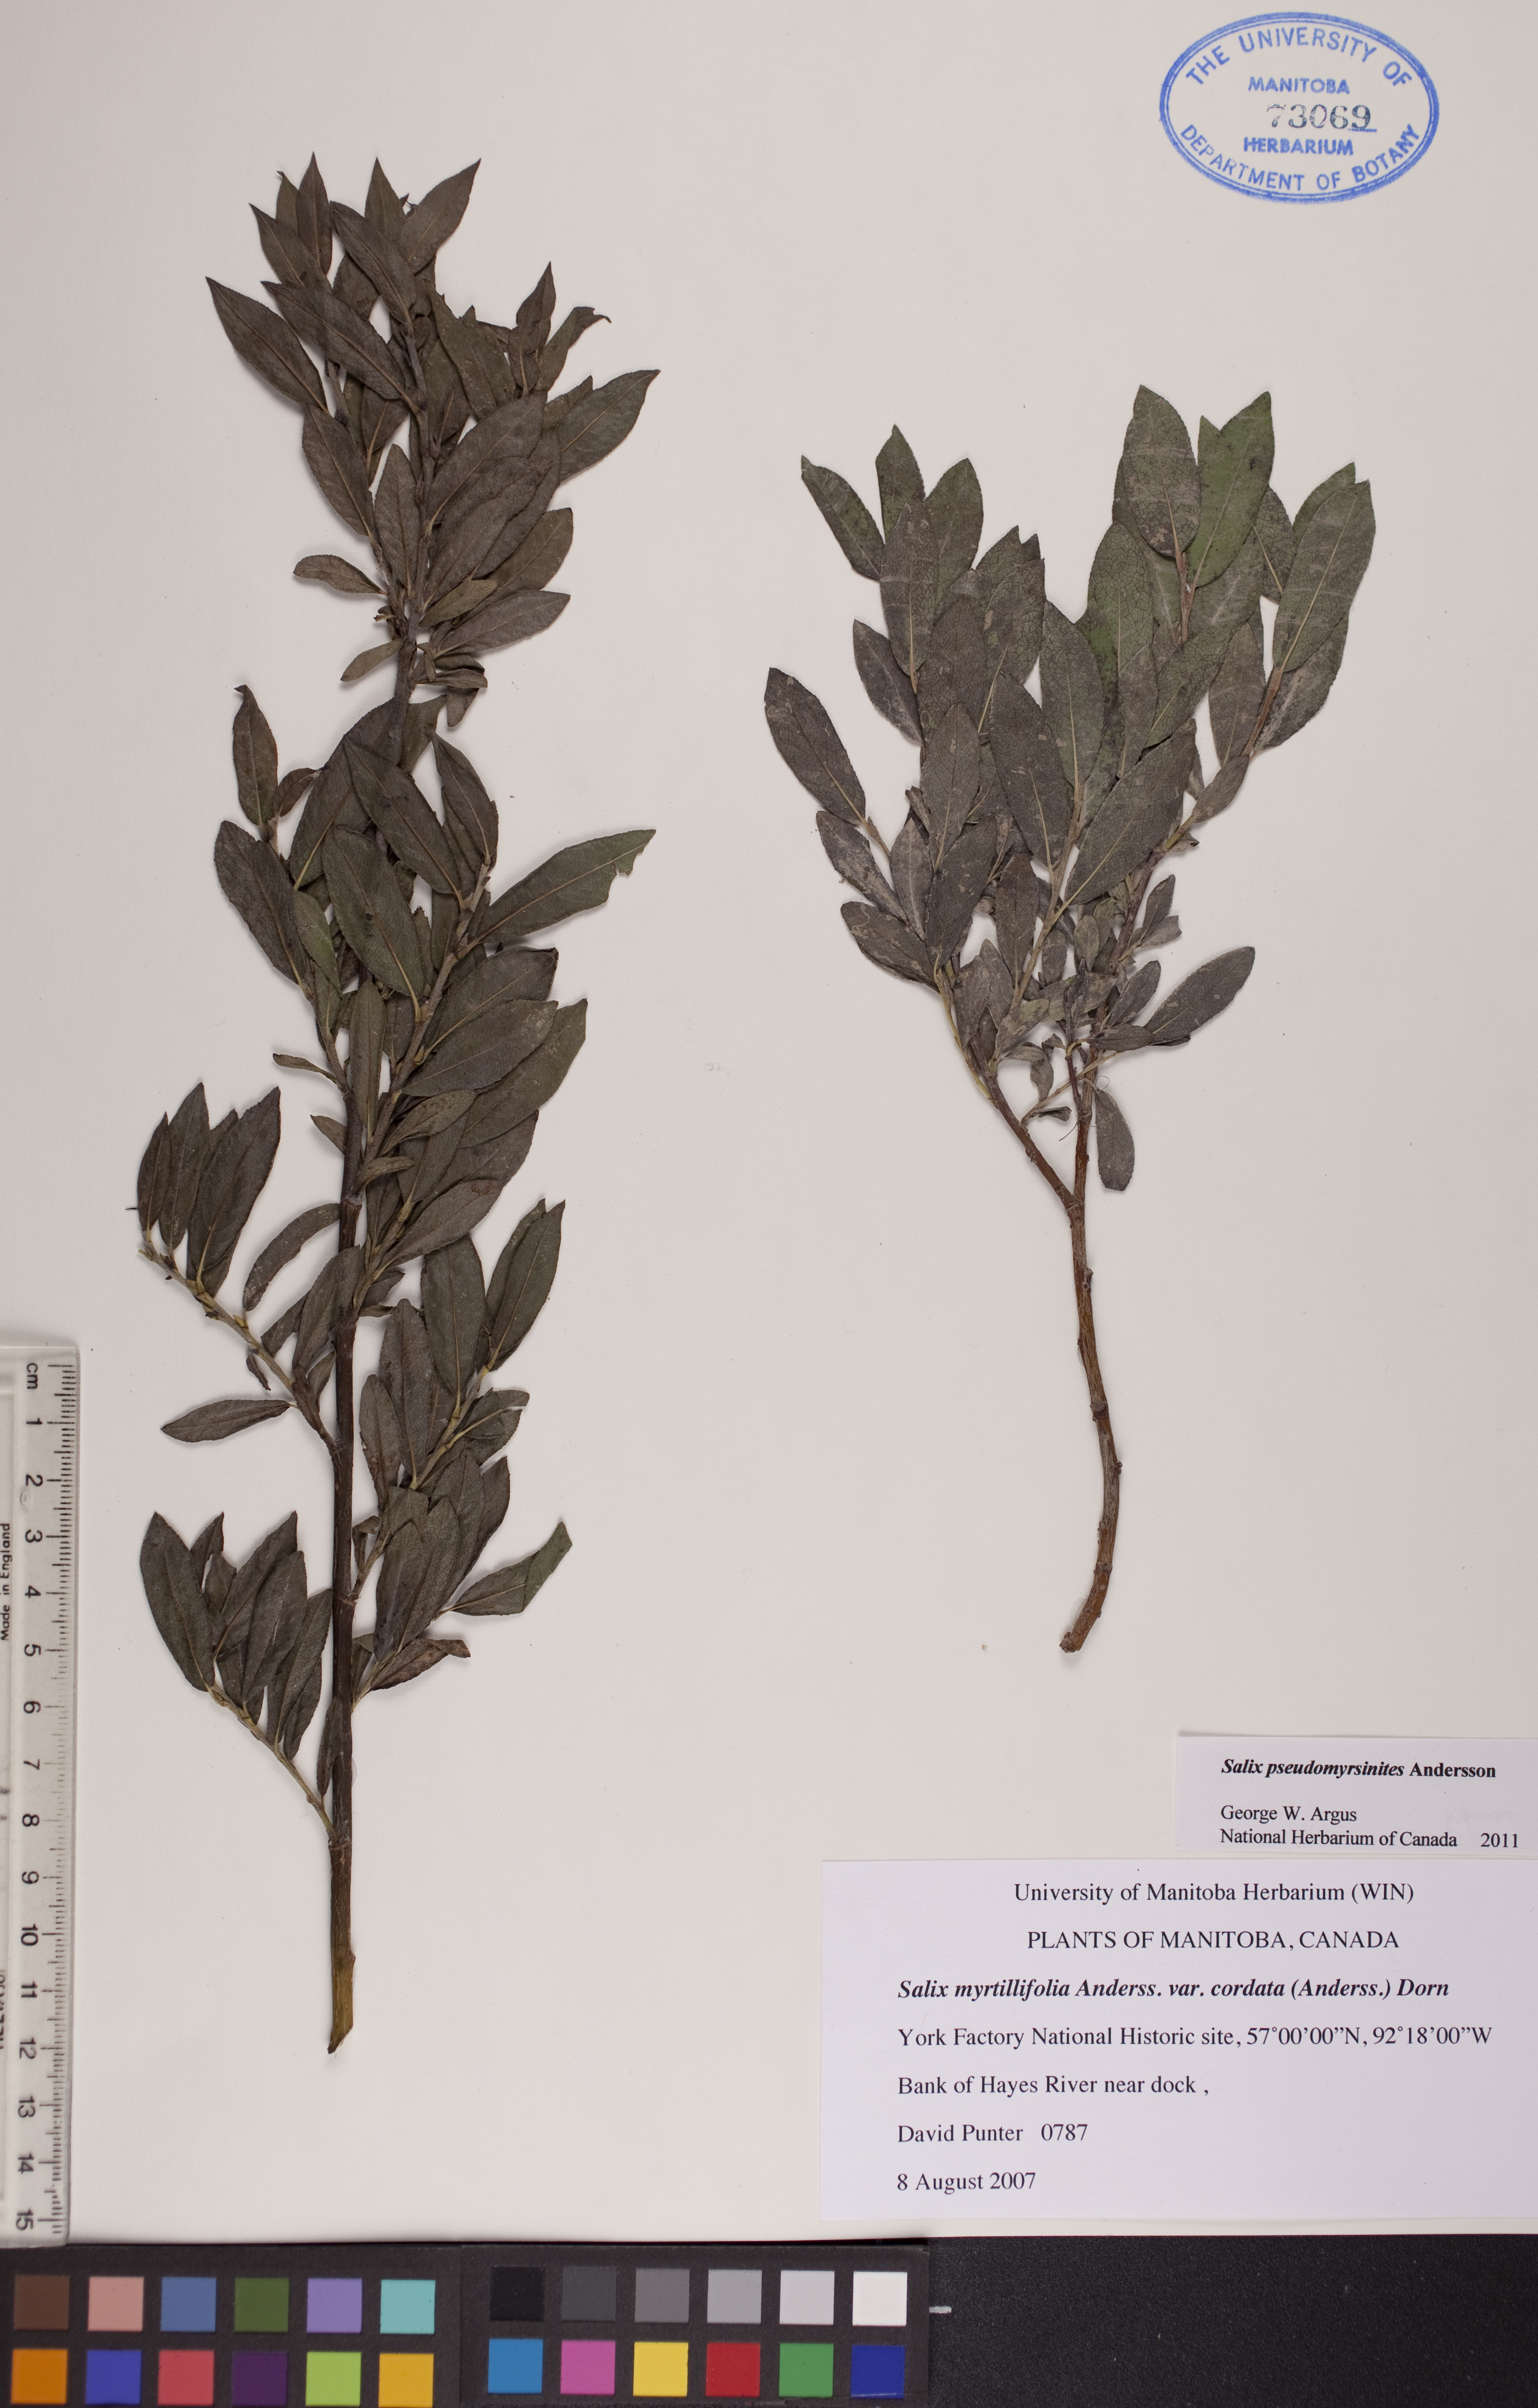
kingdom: Plantae
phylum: Tracheophyta
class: Magnoliopsida
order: Malpighiales
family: Salicaceae
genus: Salix
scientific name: Salix pseudomyrsinites
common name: Tall blueberry willow
